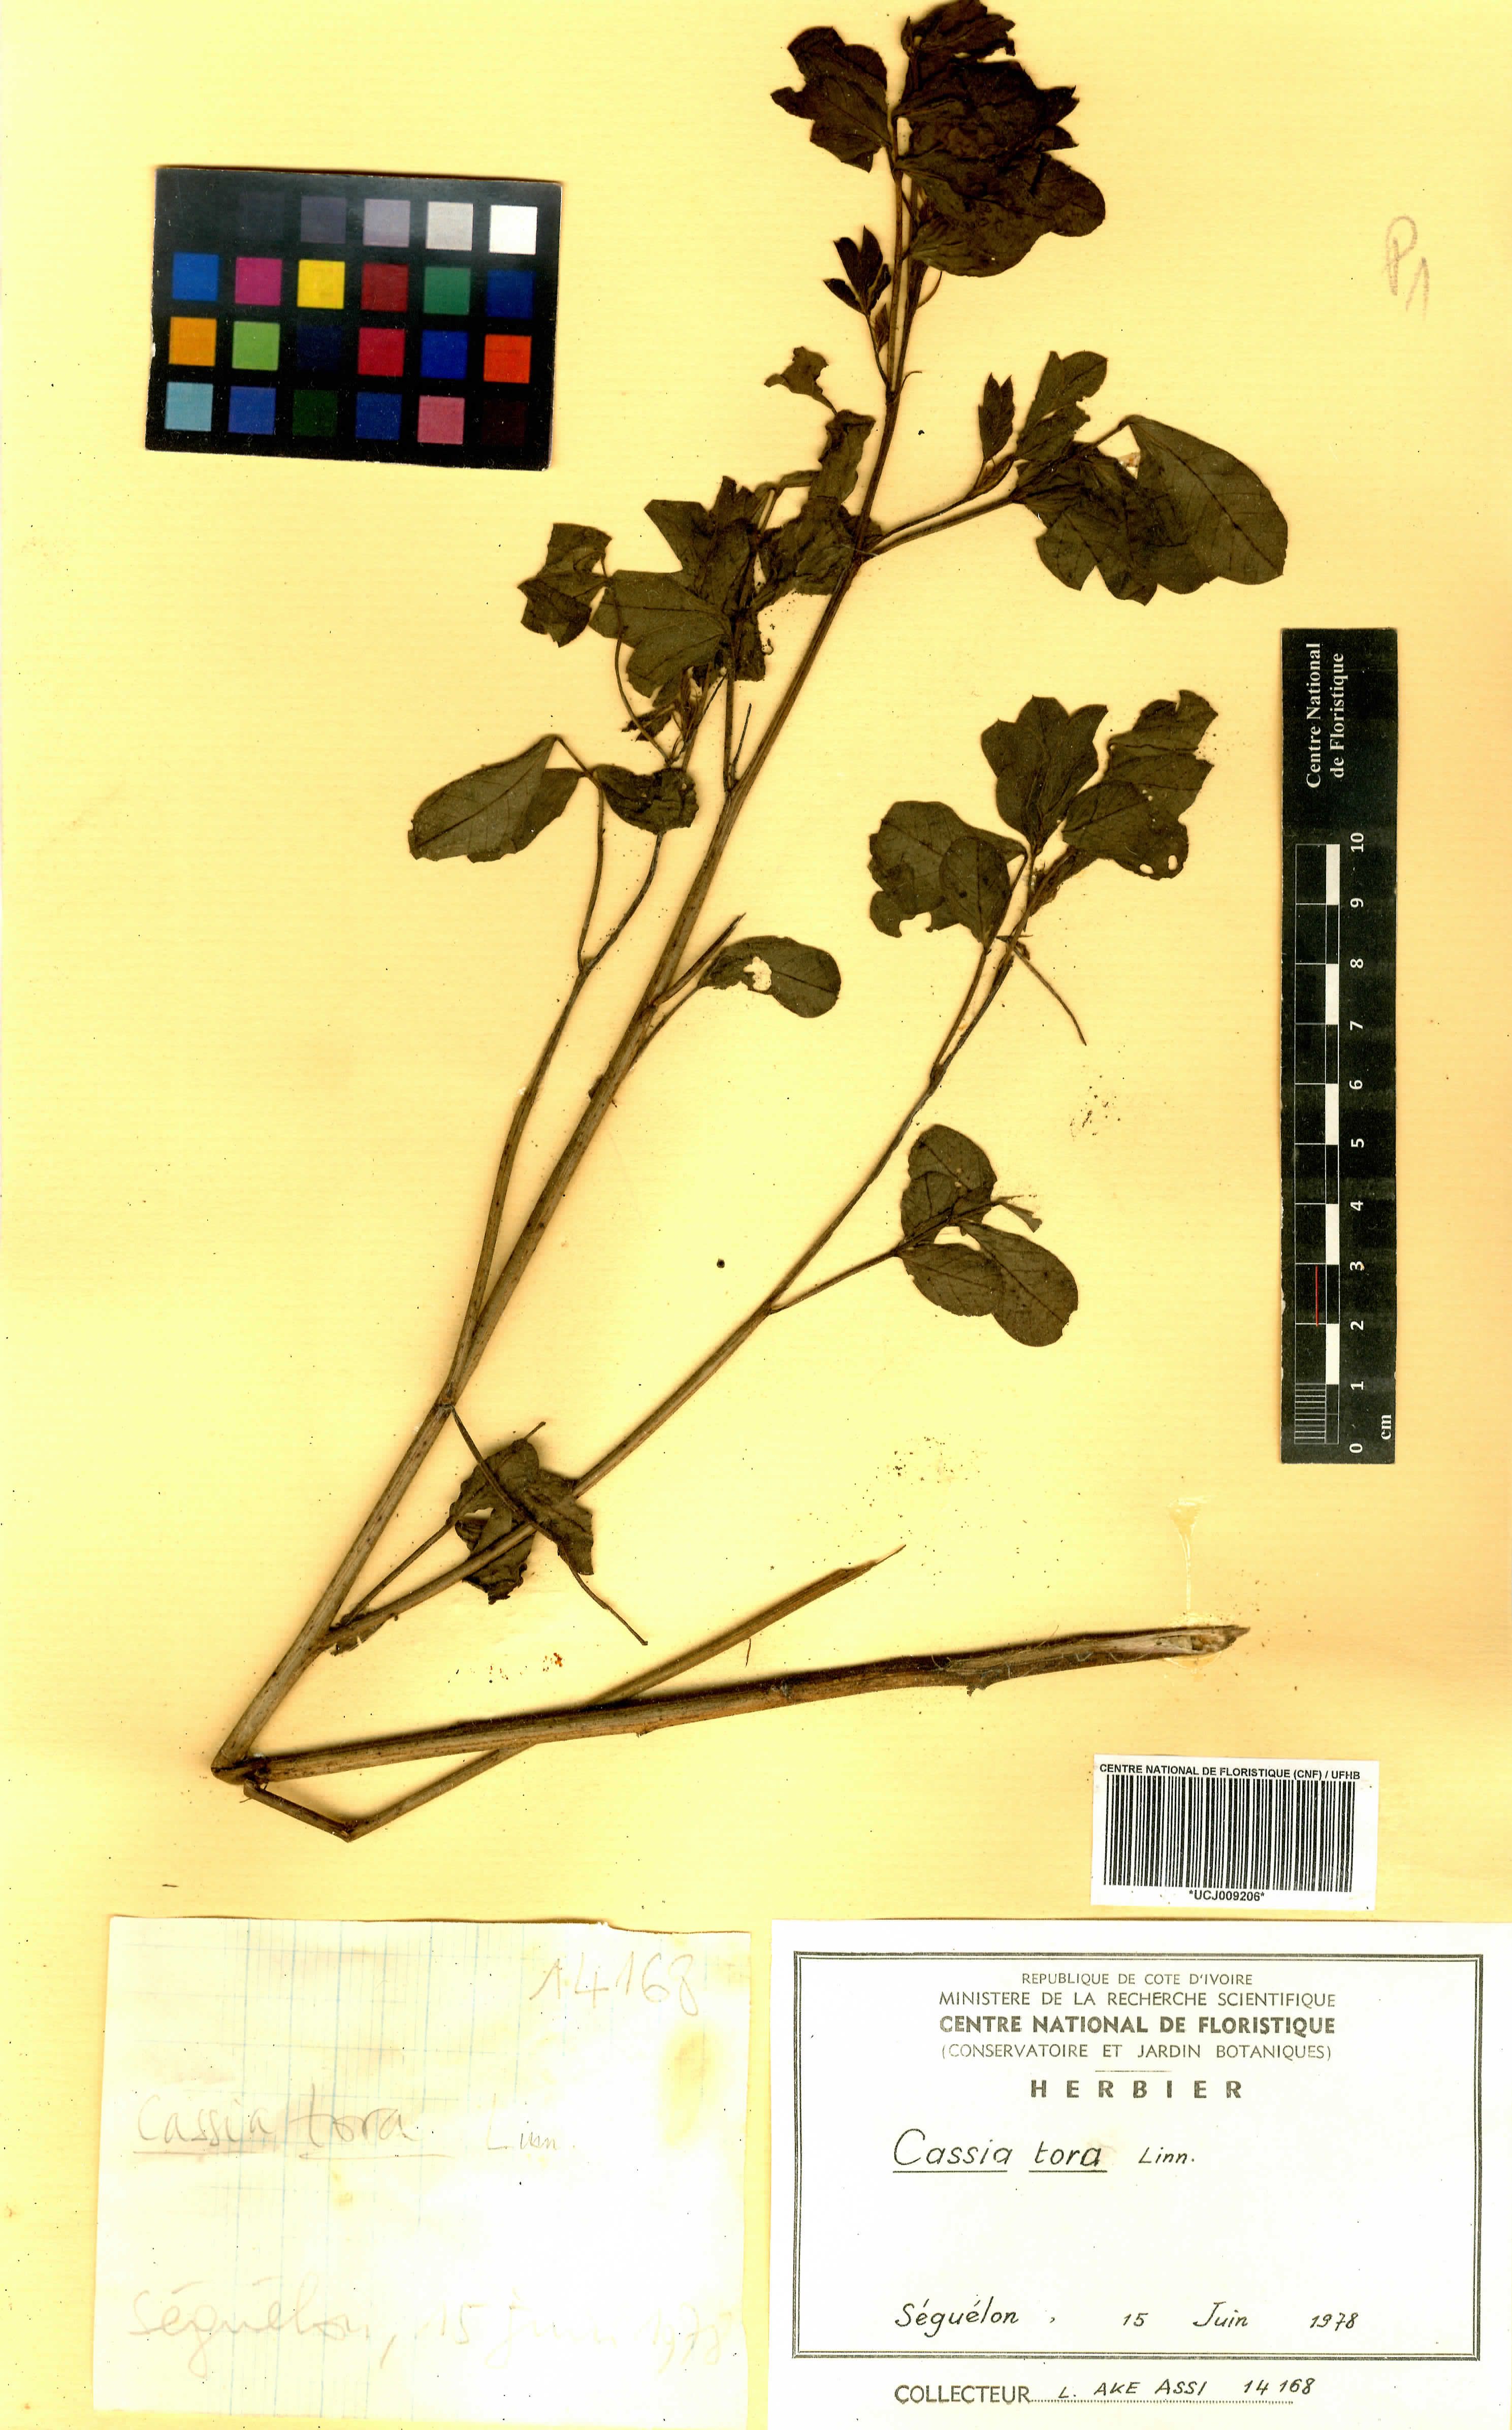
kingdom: Plantae
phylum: Tracheophyta
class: Magnoliopsida
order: Fabales
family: Fabaceae
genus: Senna
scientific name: Senna tora
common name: Sickle senna
